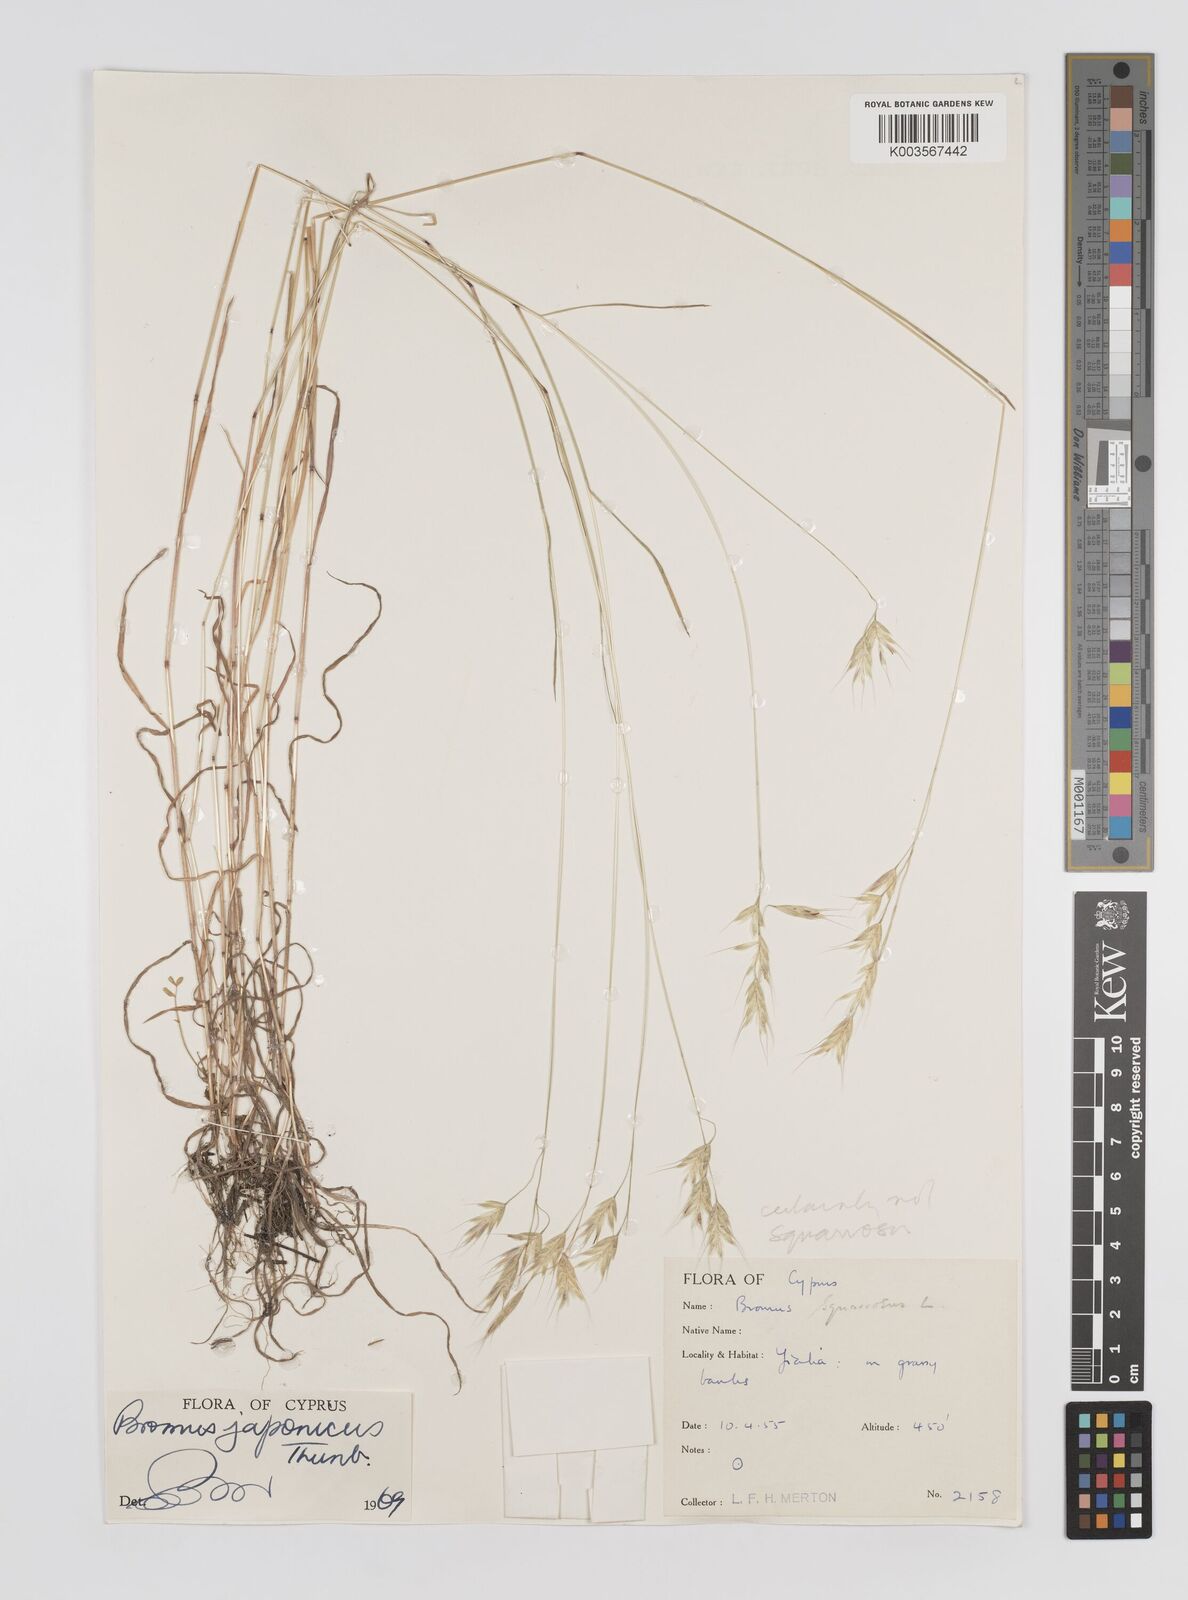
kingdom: Plantae
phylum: Tracheophyta
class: Liliopsida
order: Poales
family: Poaceae
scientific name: Poaceae
